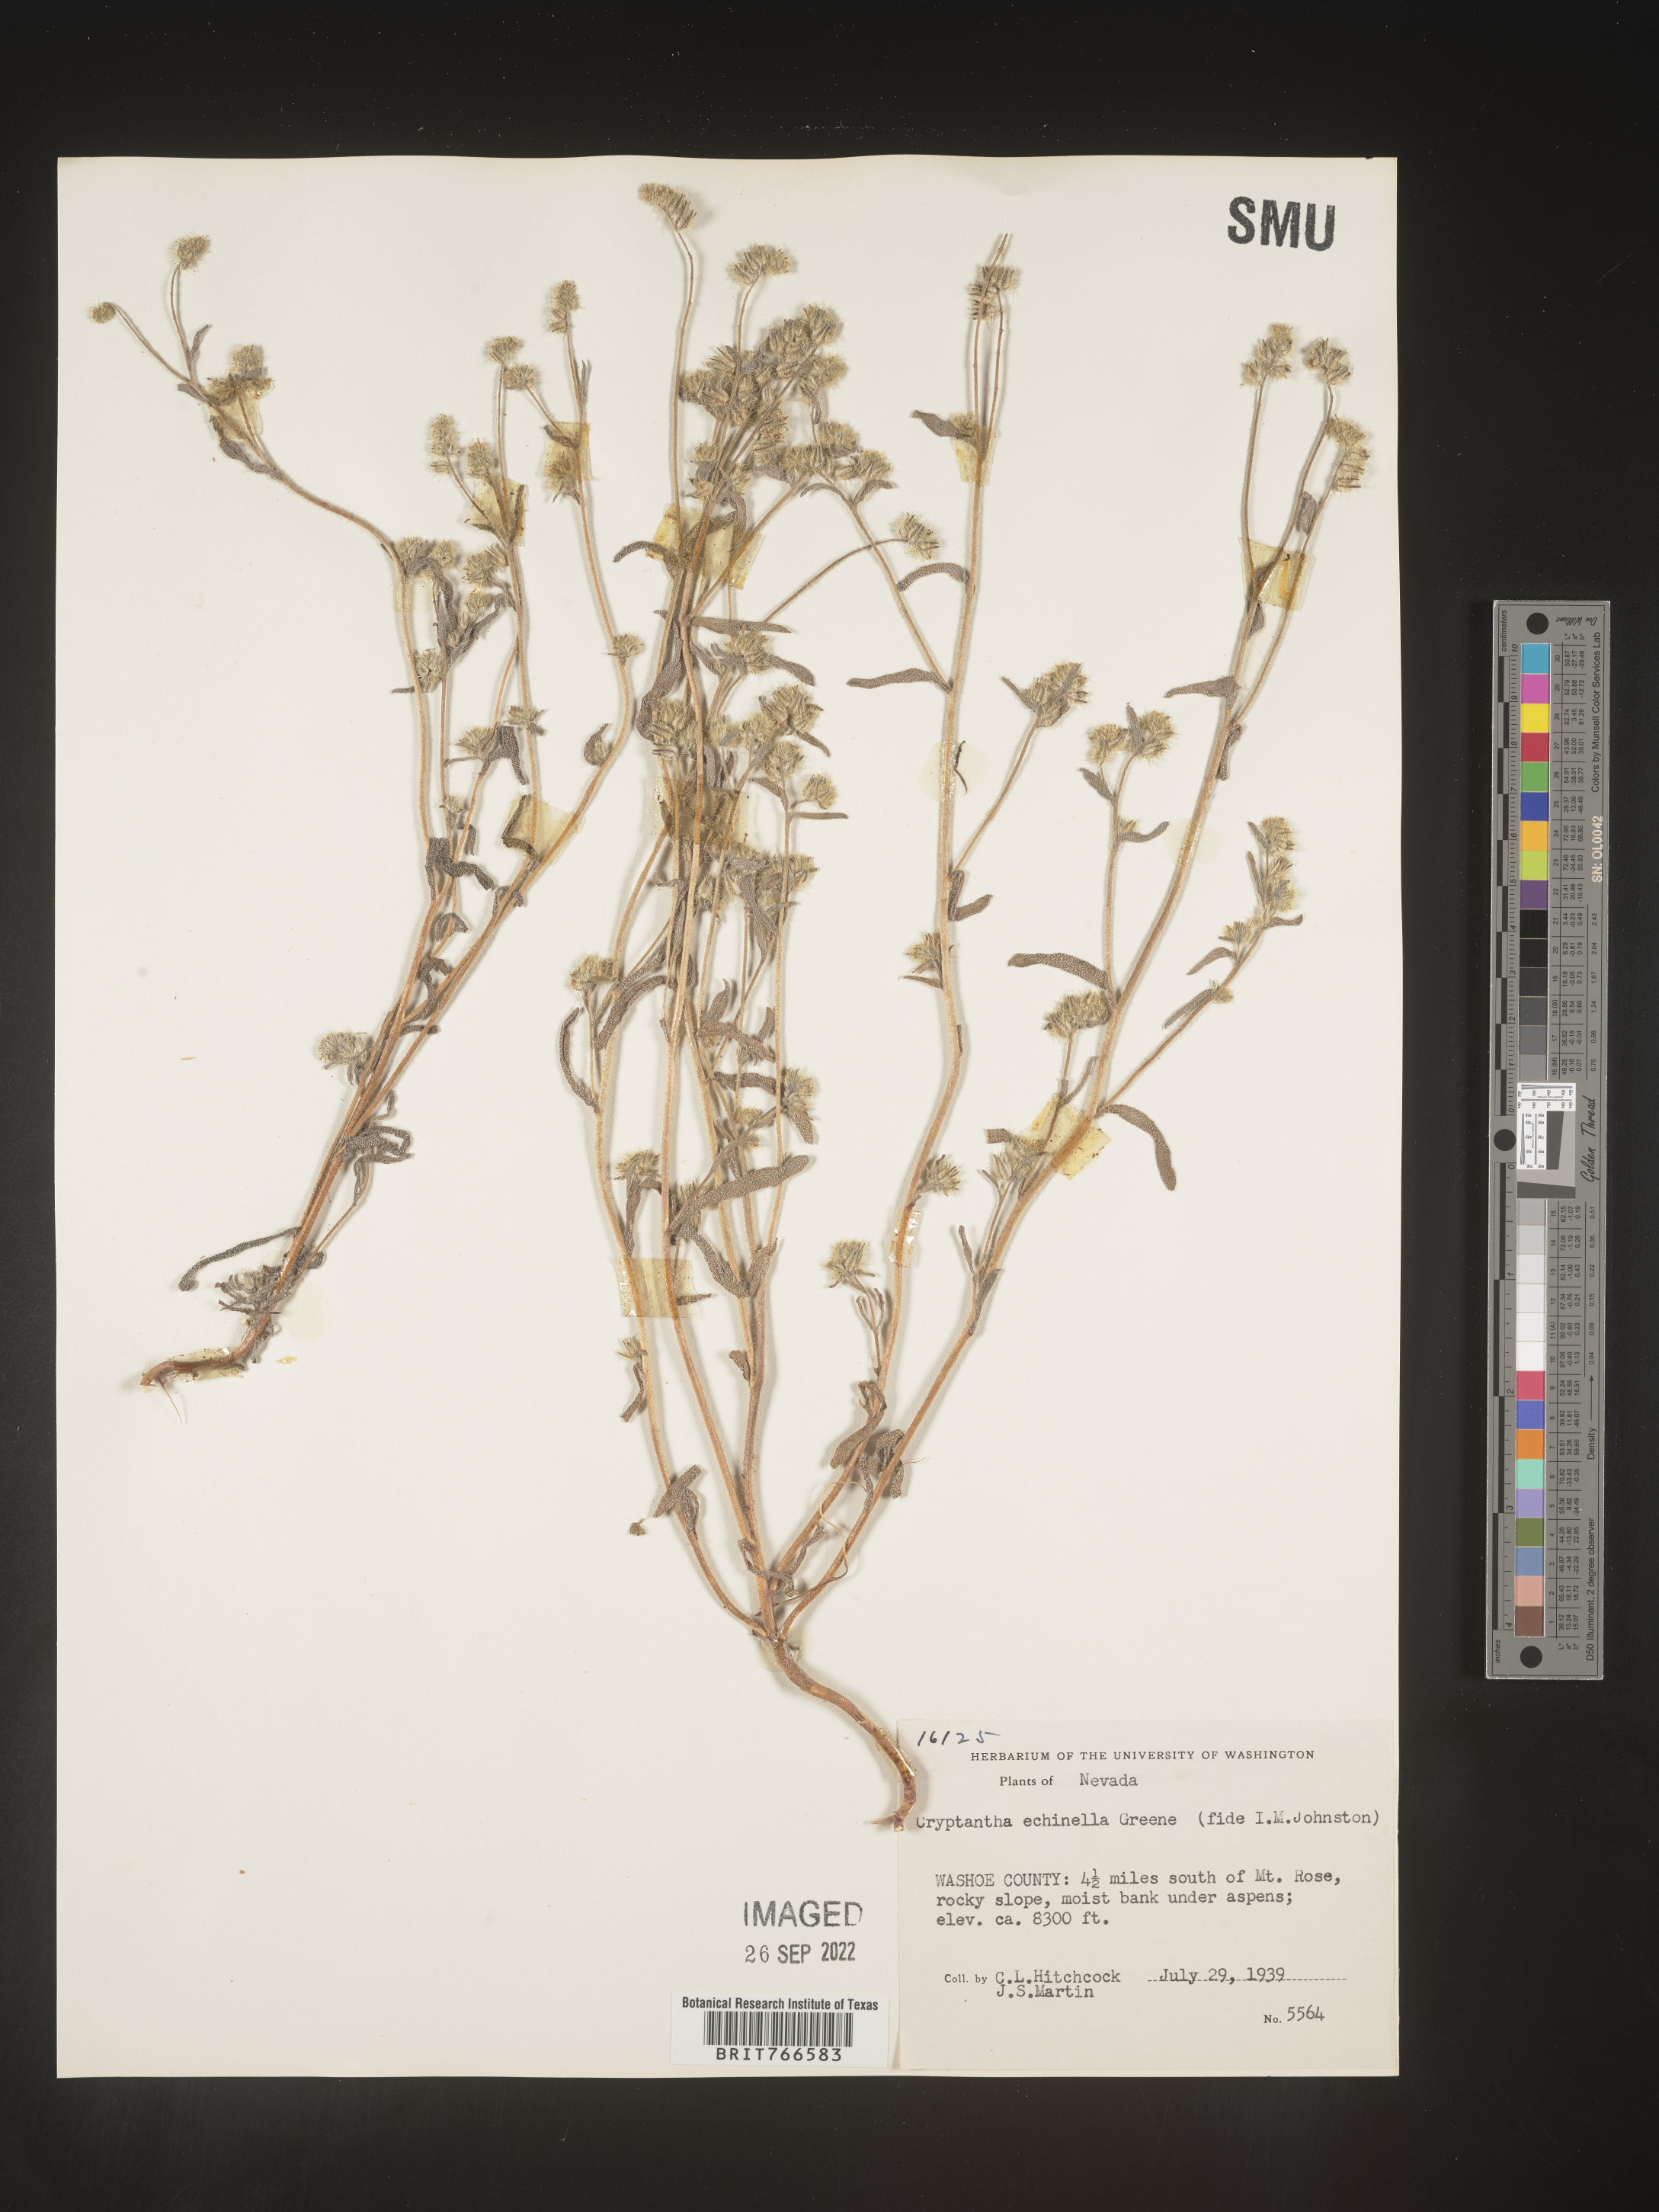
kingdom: Plantae
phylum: Tracheophyta
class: Magnoliopsida
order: Boraginales
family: Boraginaceae
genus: Cryptantha
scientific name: Cryptantha
